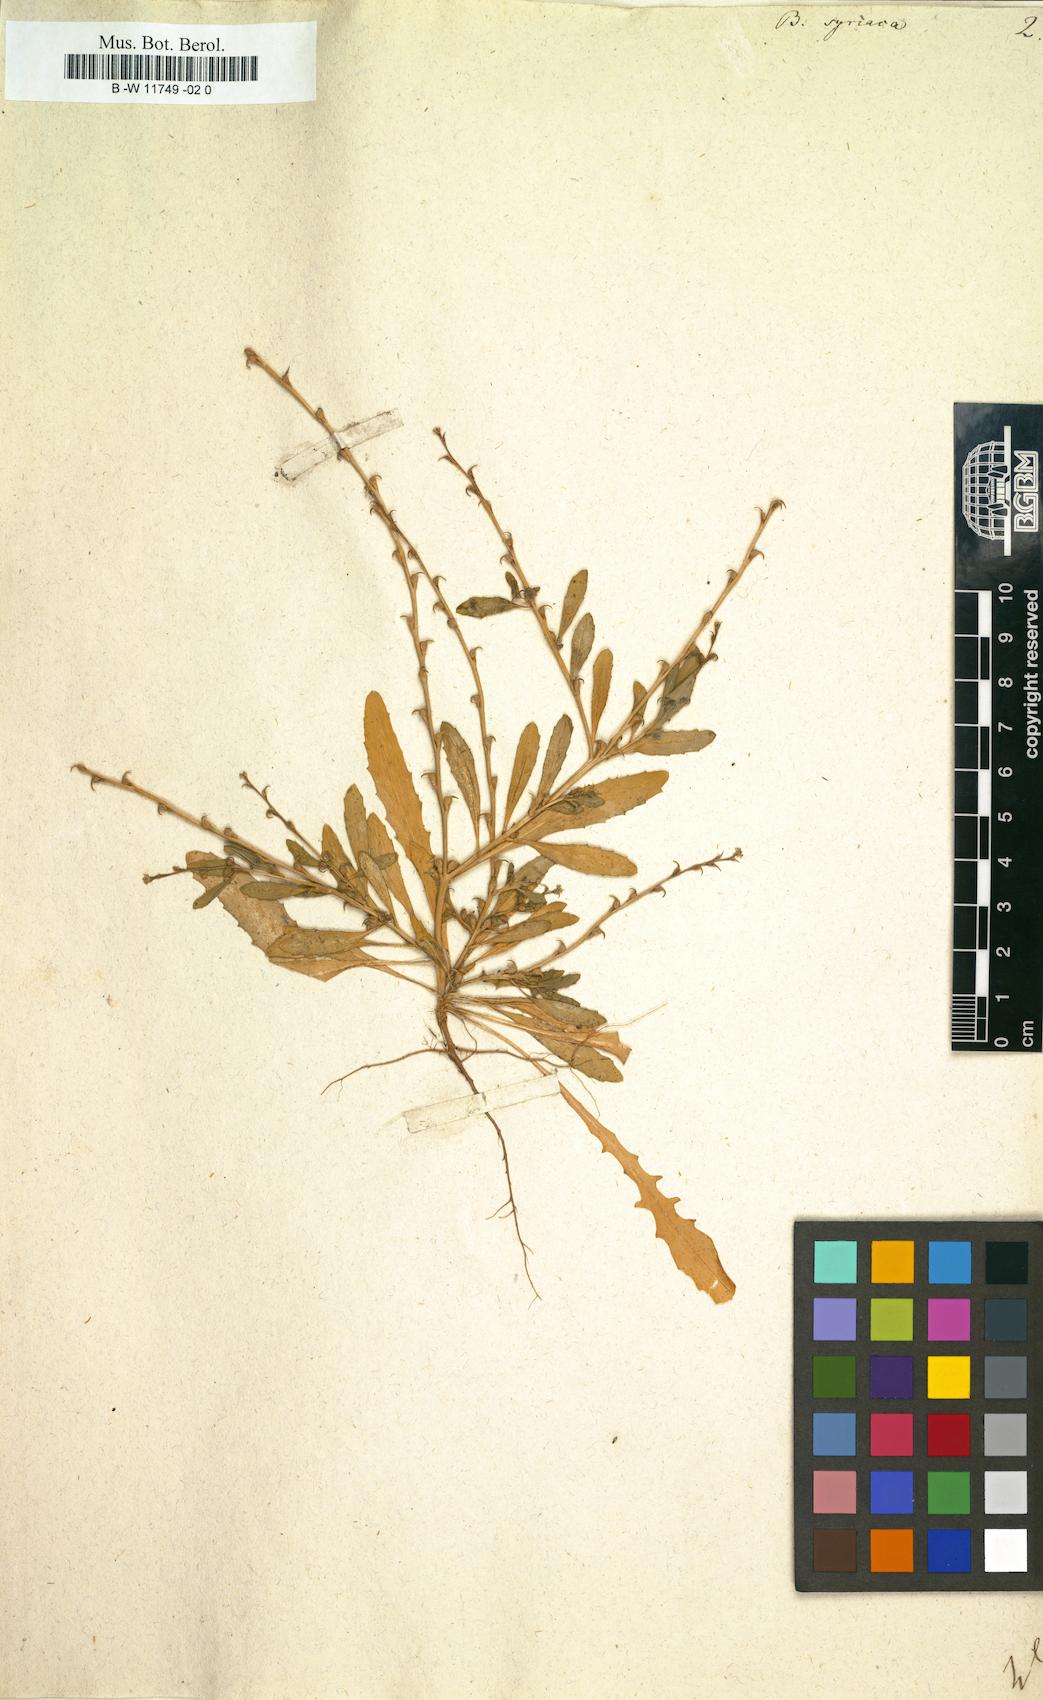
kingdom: Plantae
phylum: Tracheophyta
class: Magnoliopsida
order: Brassicales
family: Brassicaceae
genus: Euclidium
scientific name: Euclidium syriacum
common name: Syrian mustard
